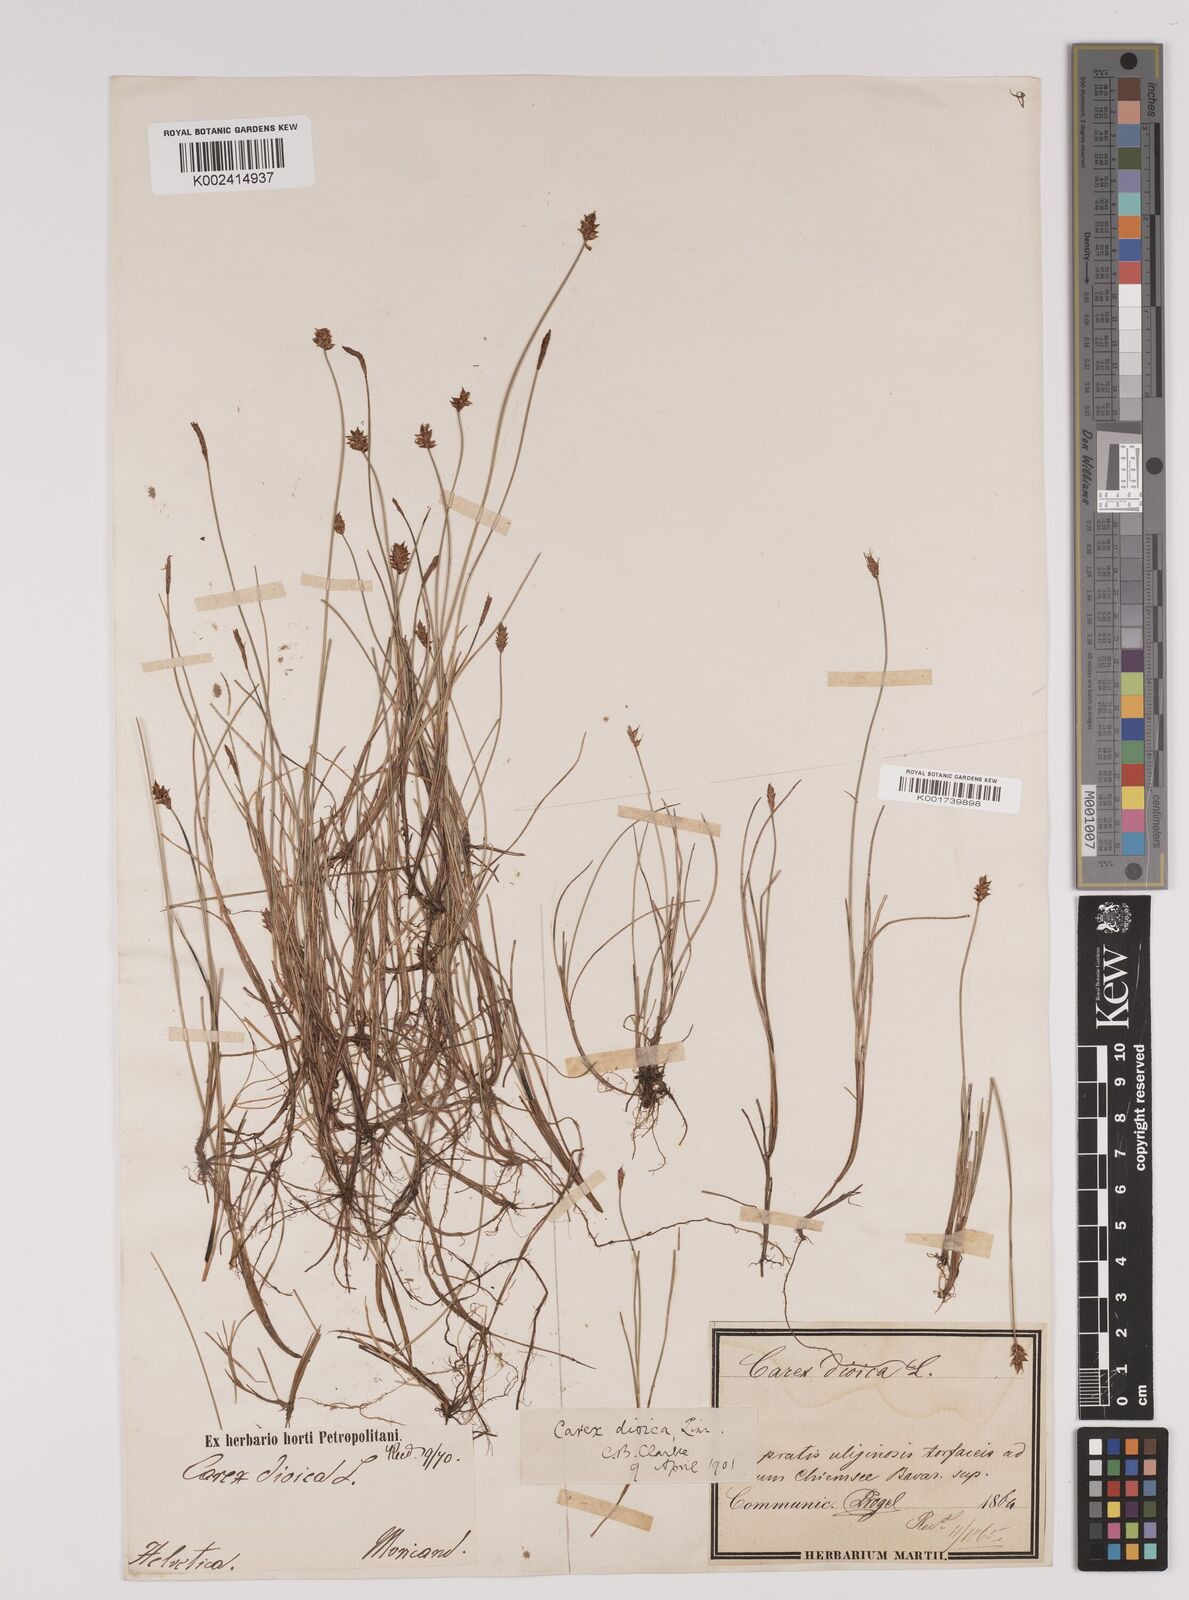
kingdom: Plantae
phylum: Tracheophyta
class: Liliopsida
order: Poales
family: Cyperaceae
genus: Carex
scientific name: Carex dioica
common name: Dioecious sedge
